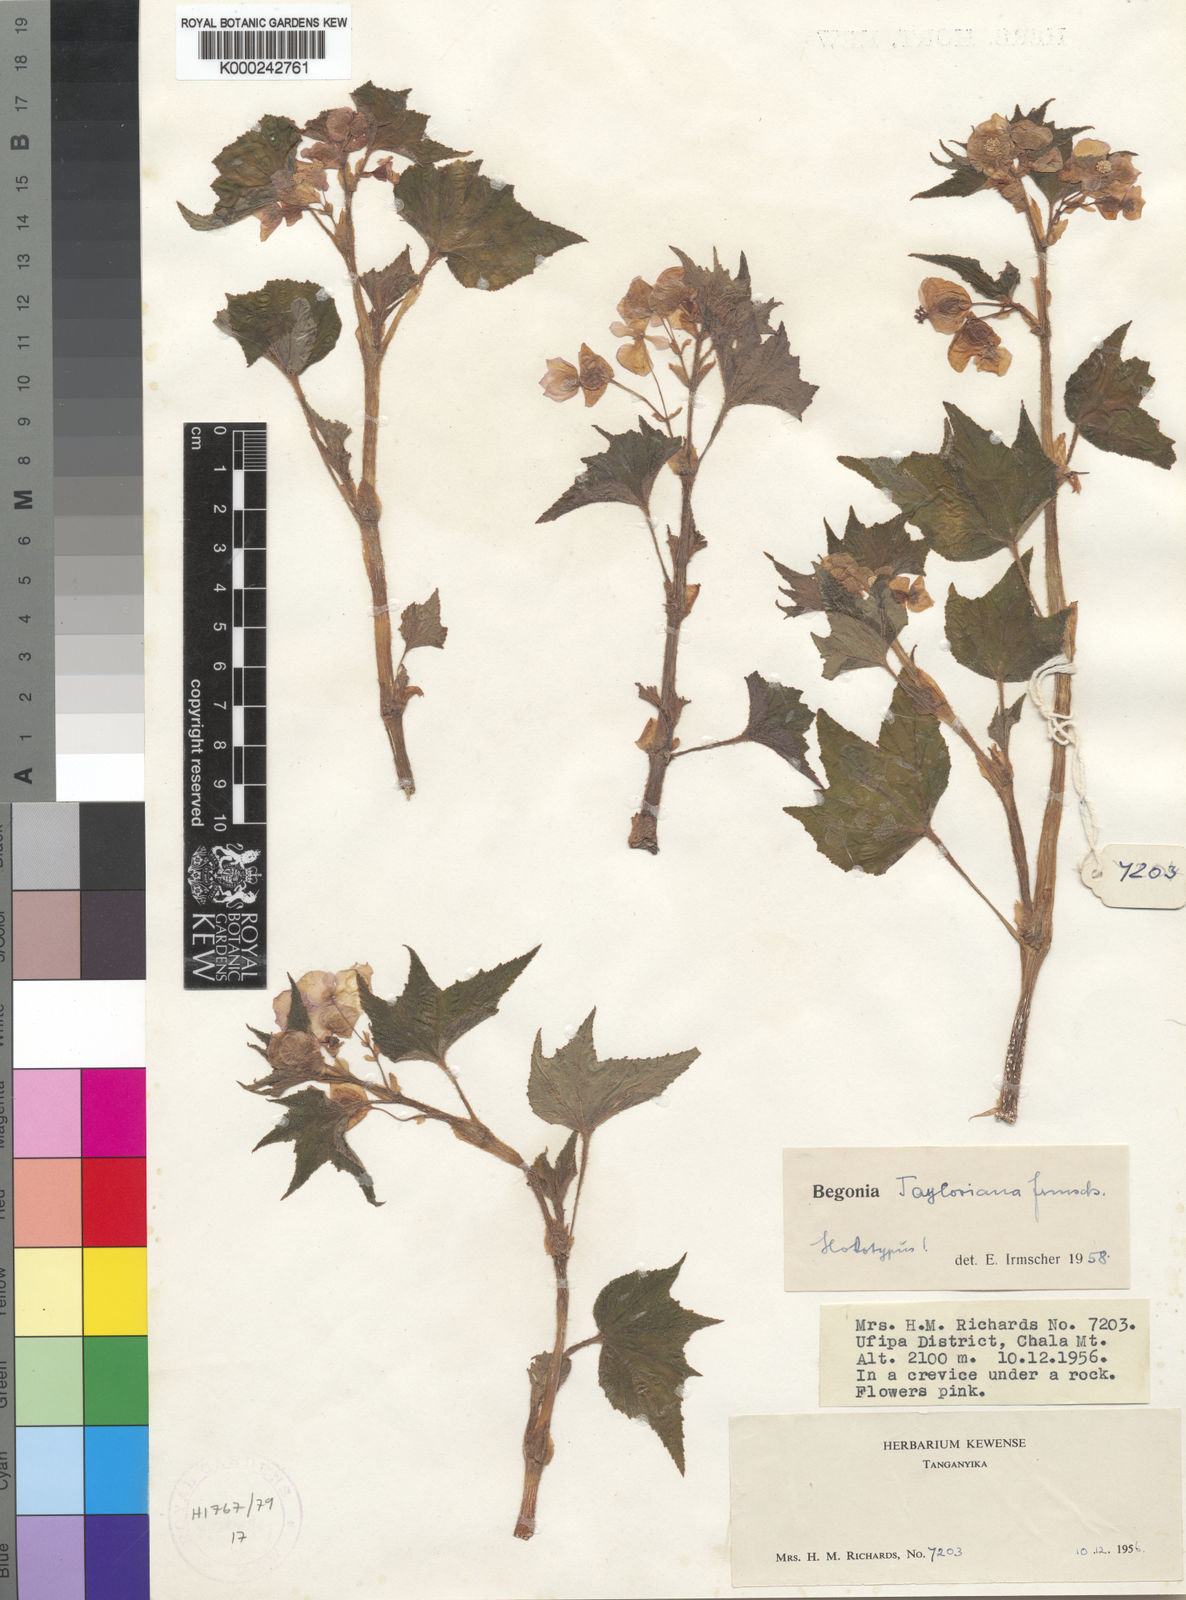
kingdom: Plantae
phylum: Tracheophyta
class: Magnoliopsida
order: Cucurbitales
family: Begoniaceae
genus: Begonia
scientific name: Begonia tayloriana
